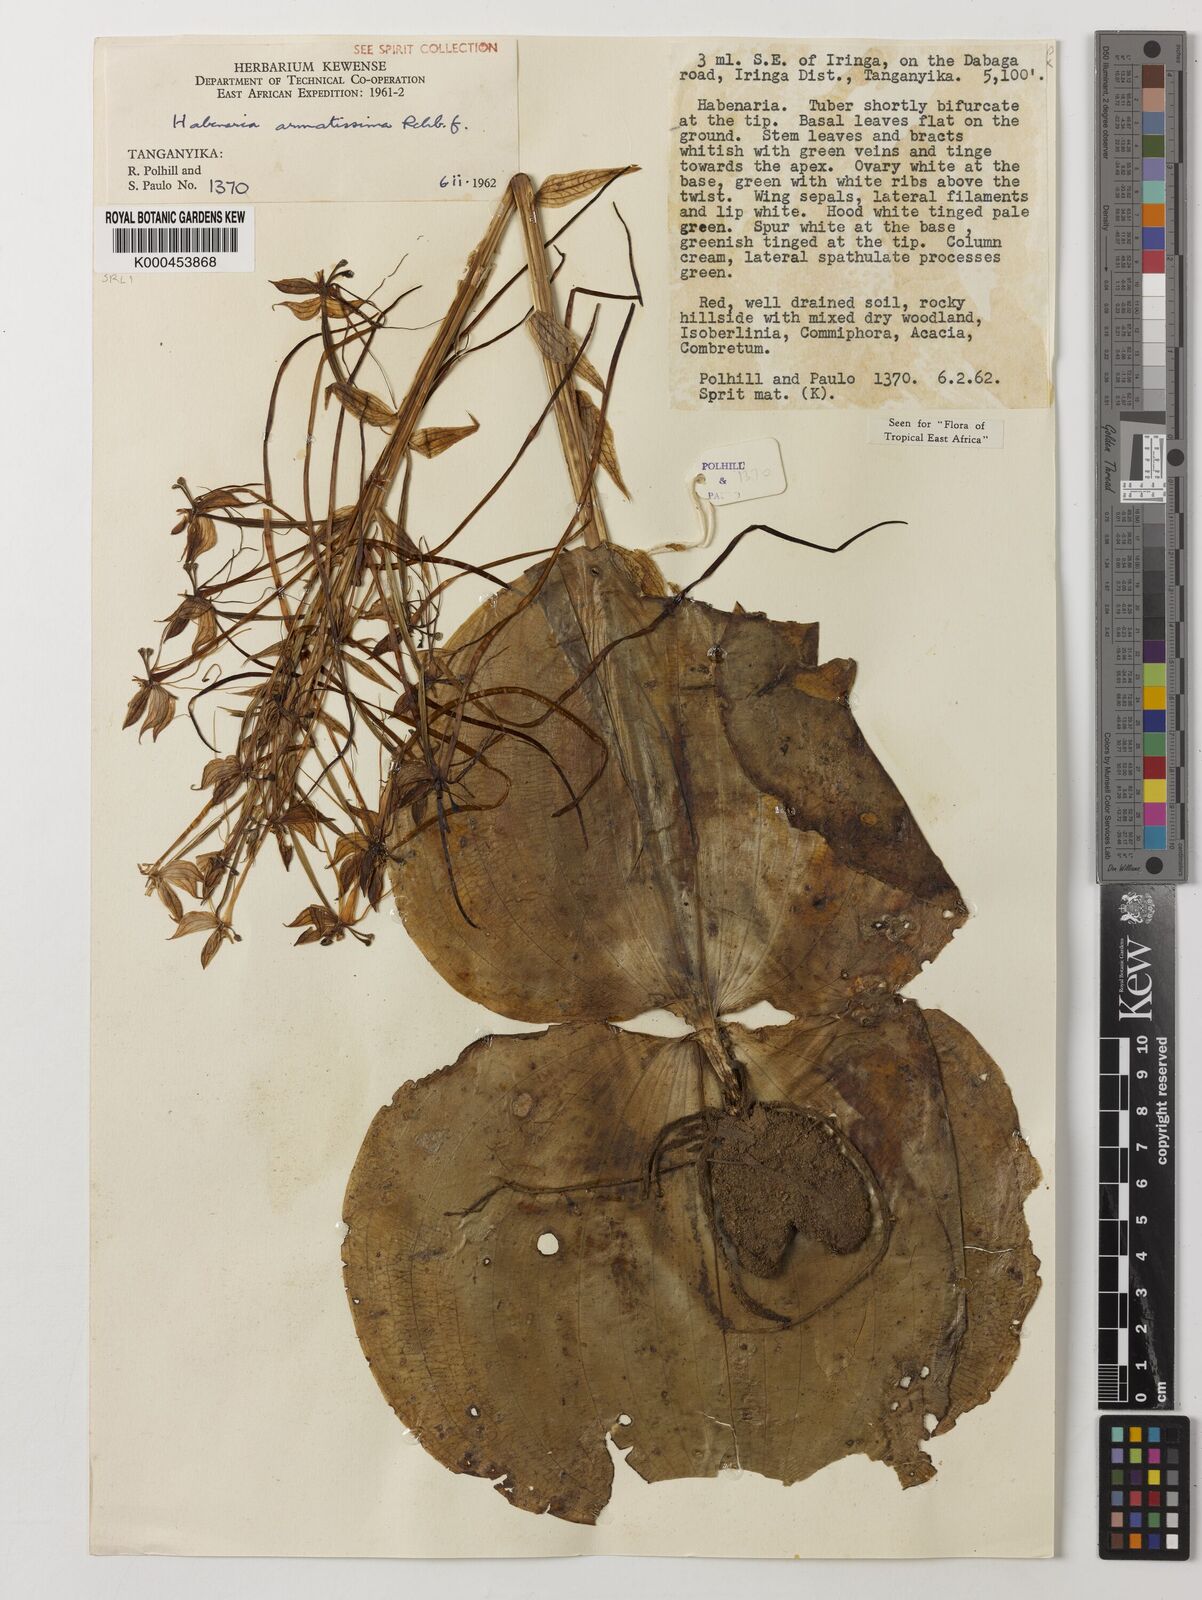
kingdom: Plantae
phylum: Tracheophyta
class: Liliopsida
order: Asparagales
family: Orchidaceae
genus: Habenaria
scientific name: Habenaria armatissima
